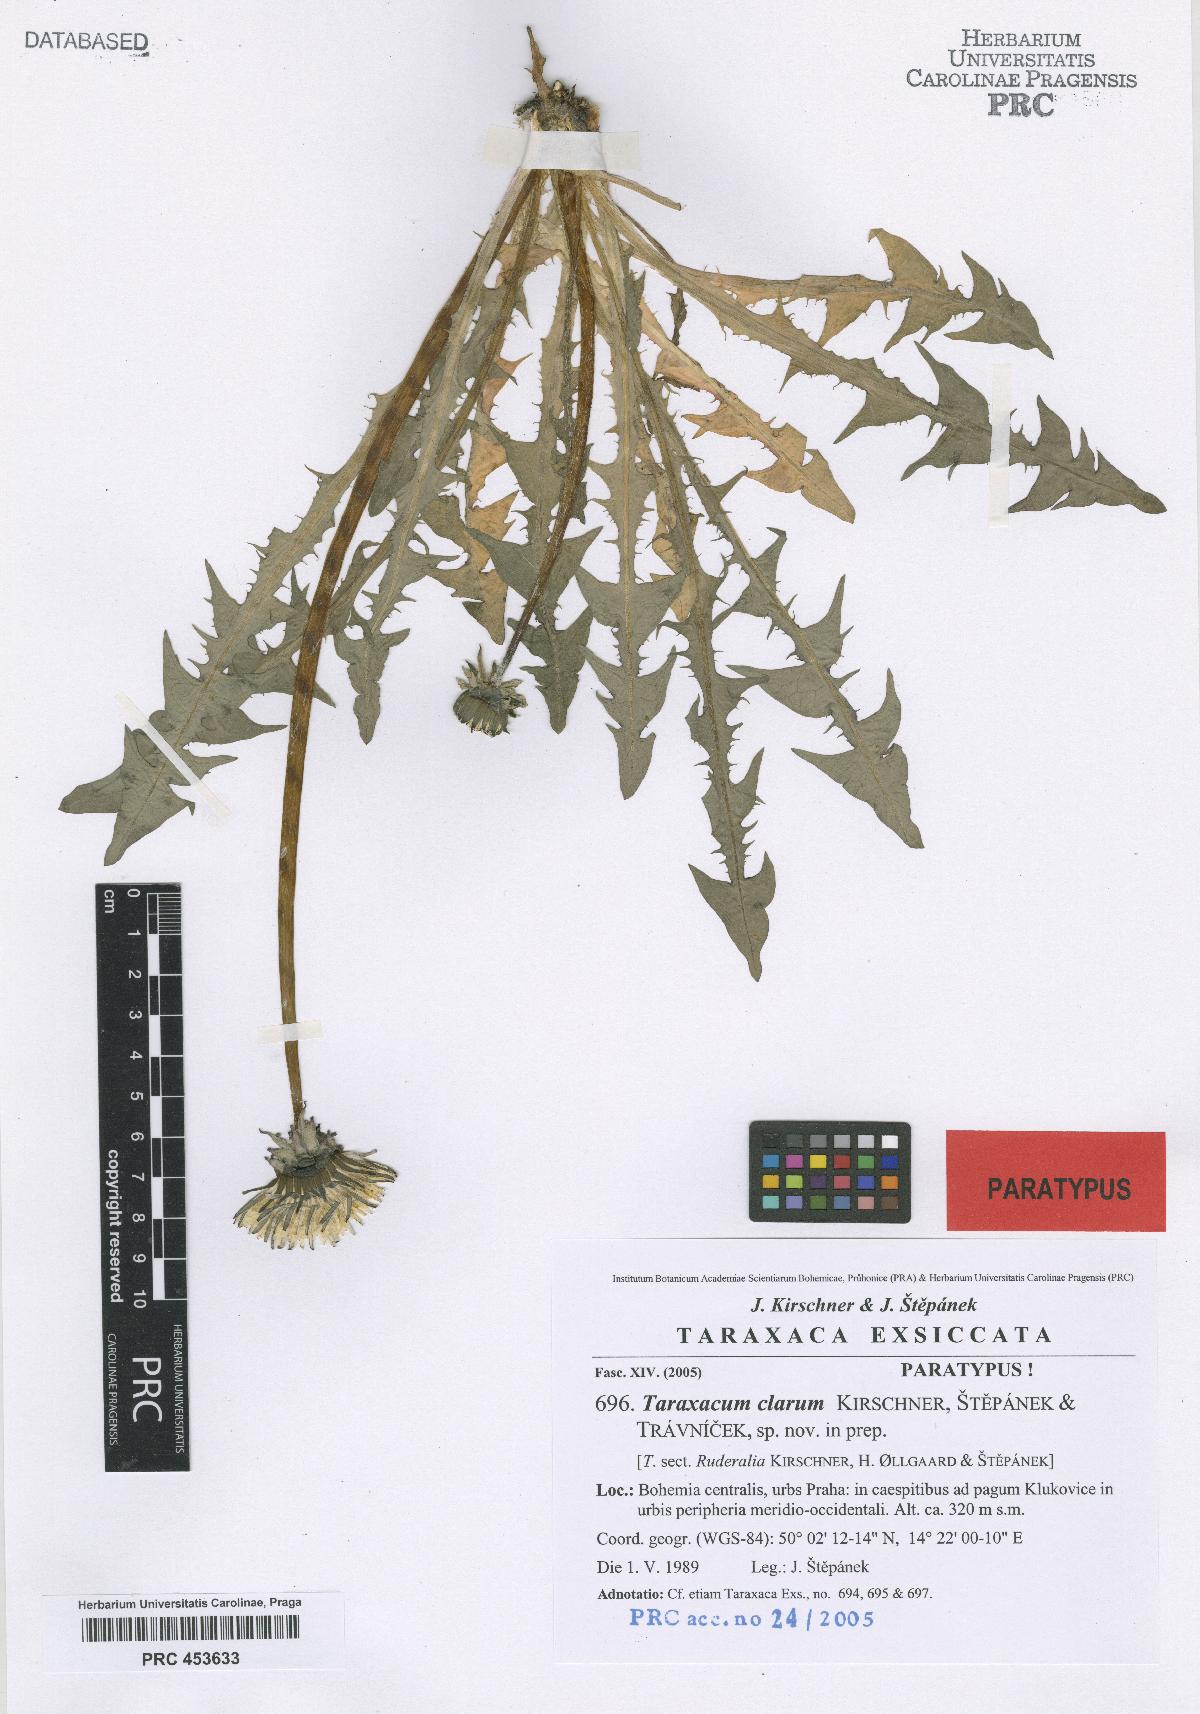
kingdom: Plantae
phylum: Tracheophyta
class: Magnoliopsida
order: Asterales
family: Asteraceae
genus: Taraxacum
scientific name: Taraxacum caninum
